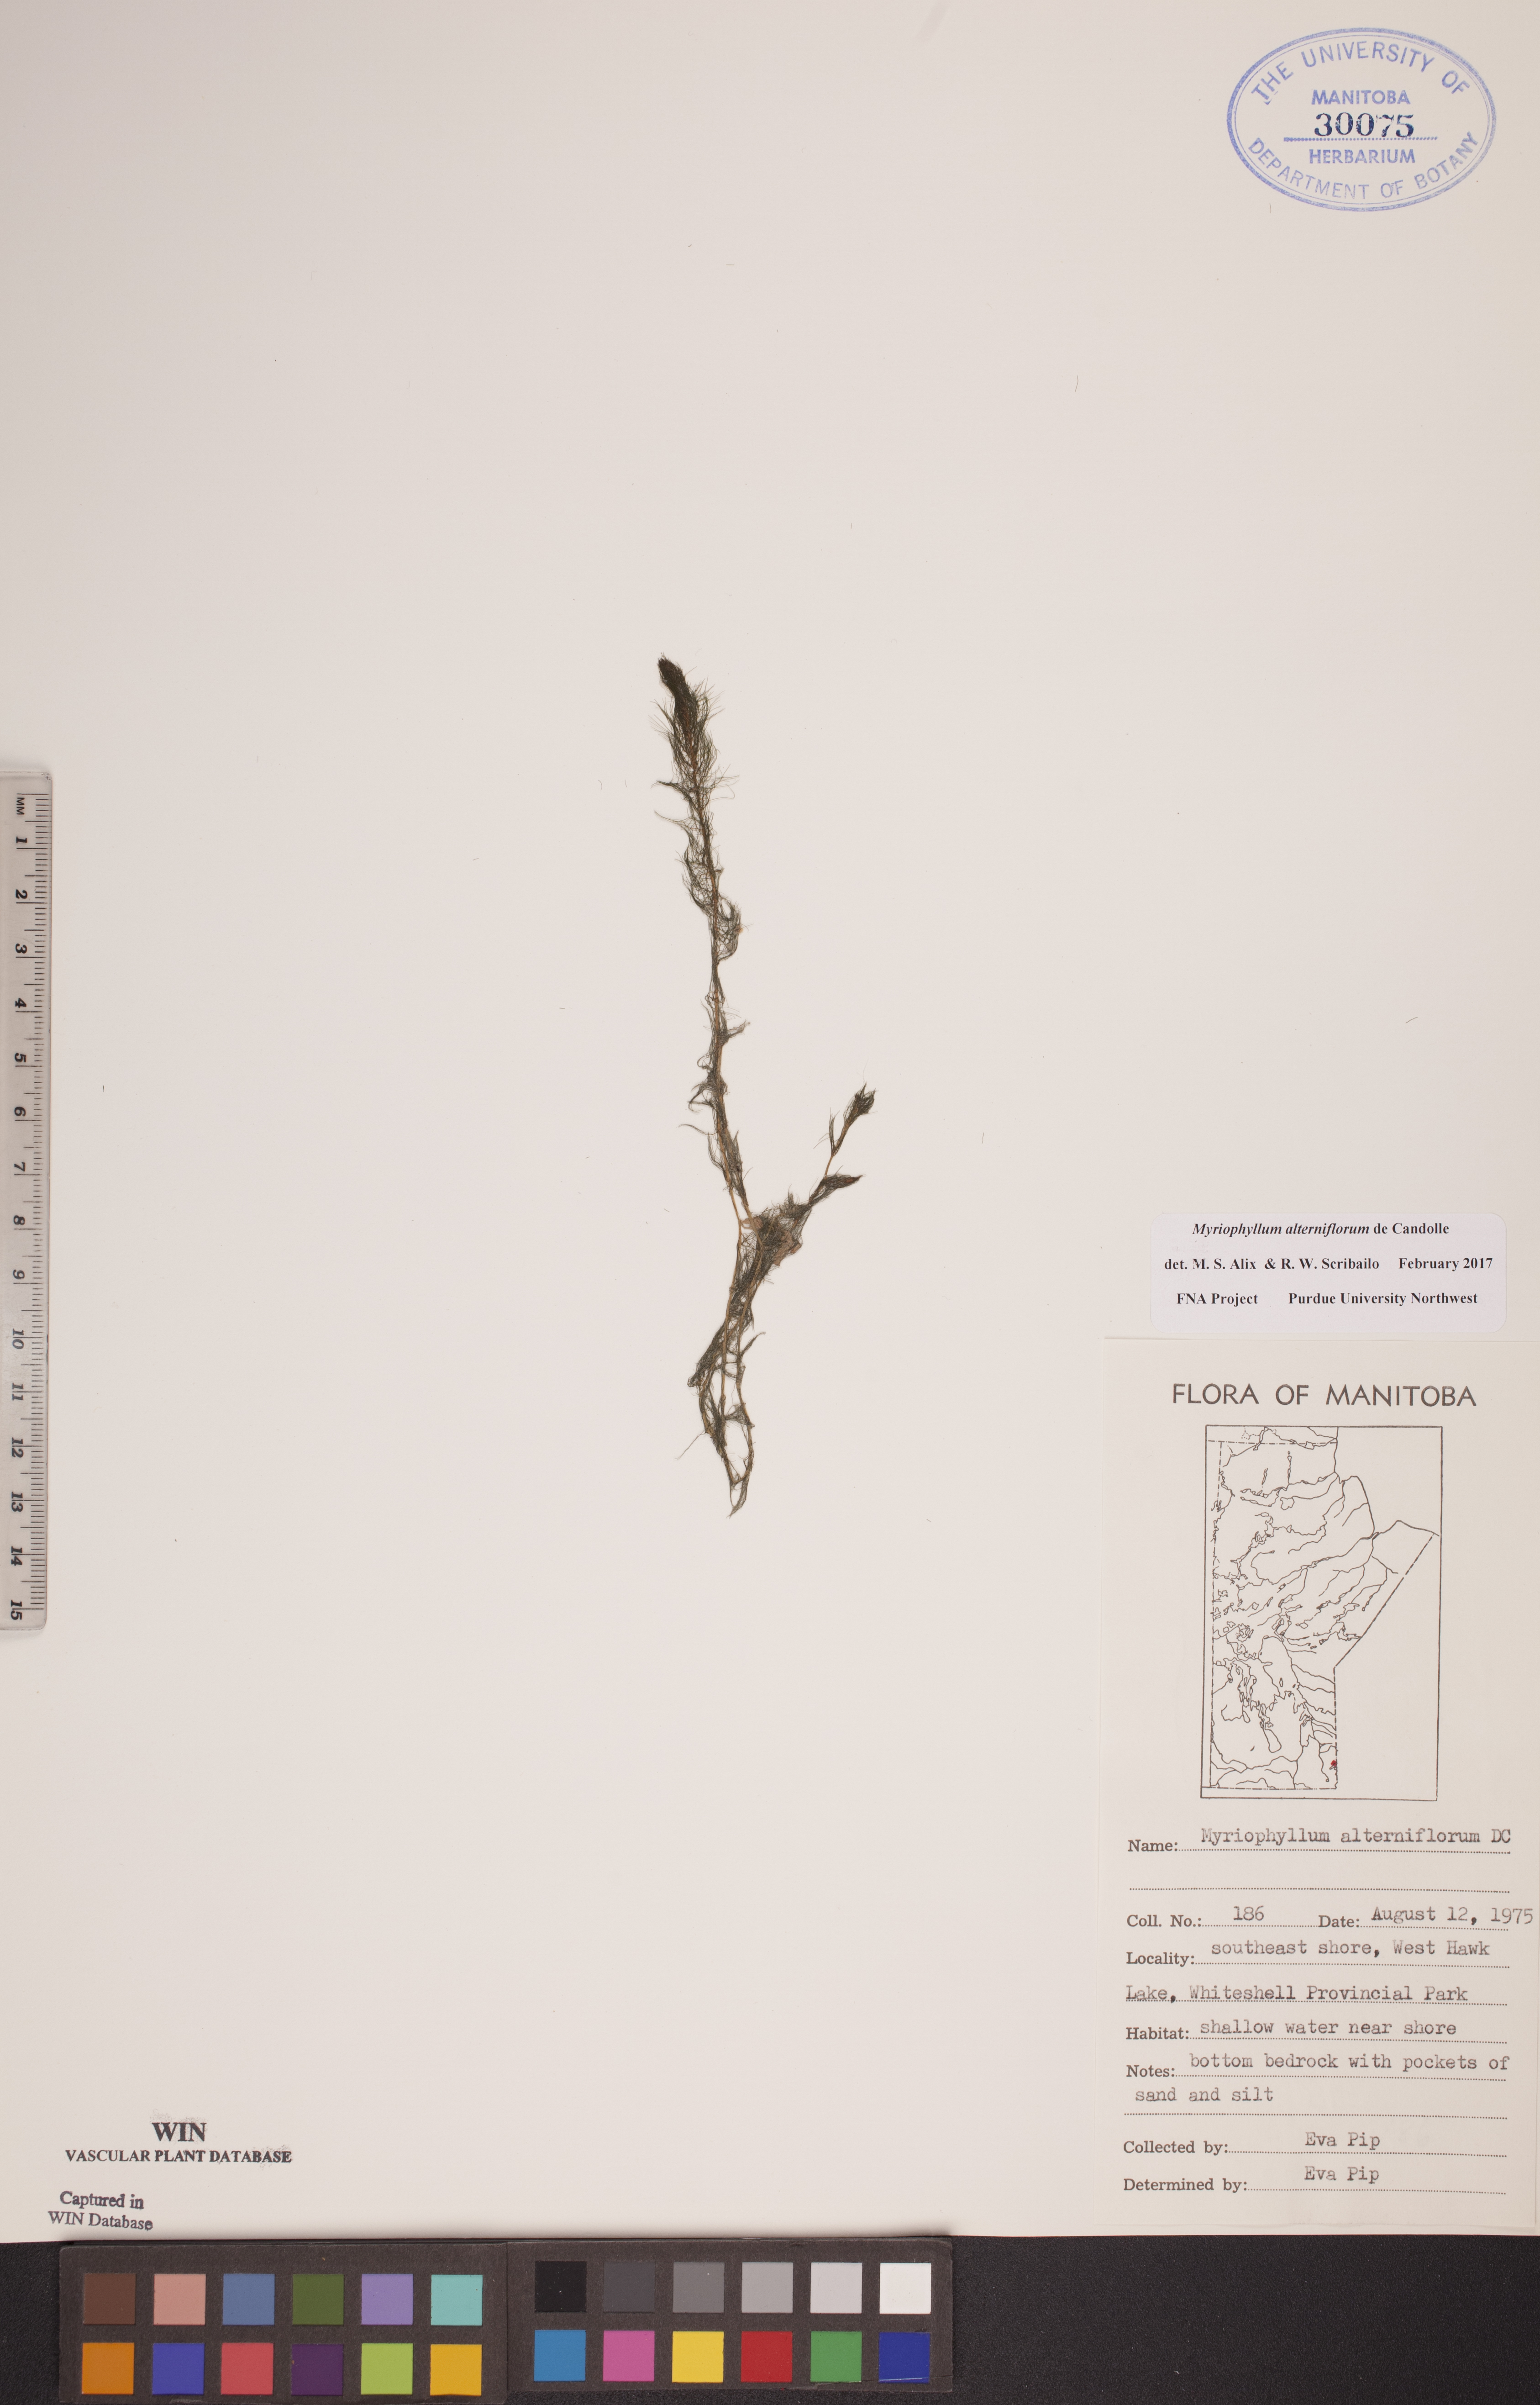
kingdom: Plantae
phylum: Tracheophyta
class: Magnoliopsida
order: Saxifragales
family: Haloragaceae
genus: Myriophyllum
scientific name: Myriophyllum alterniflorum
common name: Alternate water-milfoil
